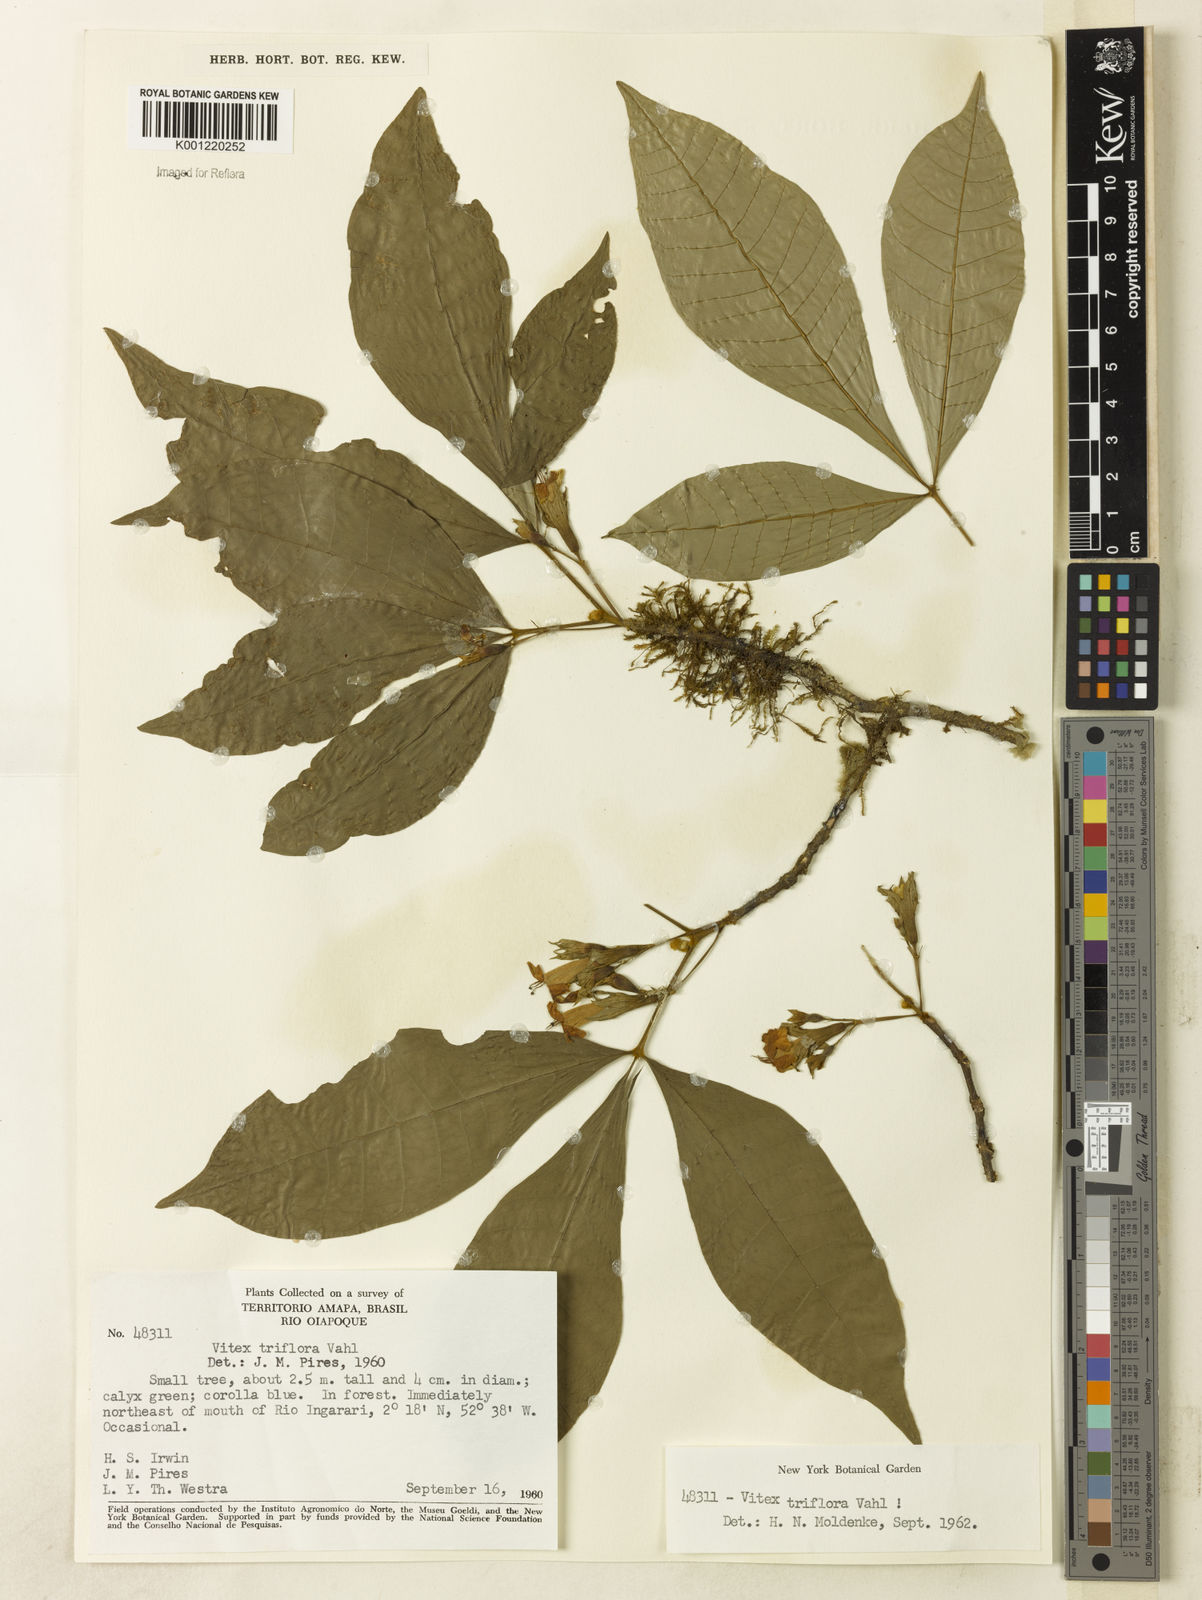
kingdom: Plantae
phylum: Tracheophyta
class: Magnoliopsida
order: Lamiales
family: Lamiaceae
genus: Vitex
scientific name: Vitex triflora
